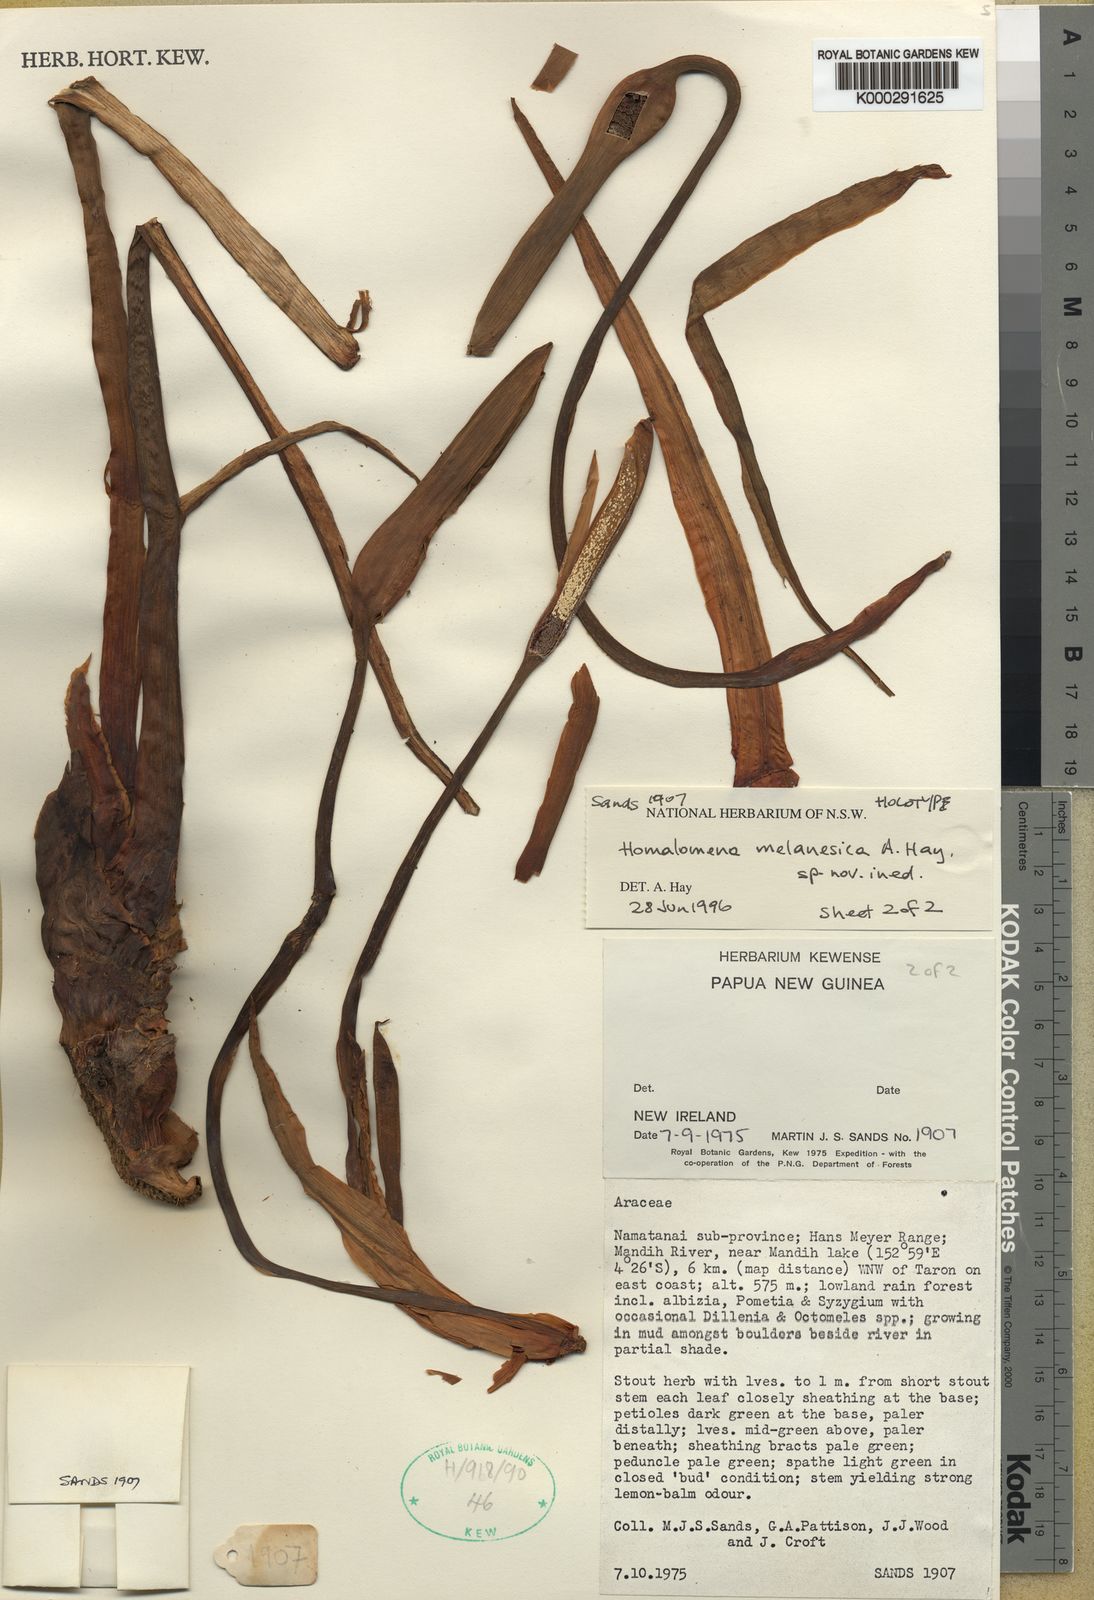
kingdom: Plantae
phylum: Tracheophyta
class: Liliopsida
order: Alismatales
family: Araceae
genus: Homalomena
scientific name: Homalomena melanesica
